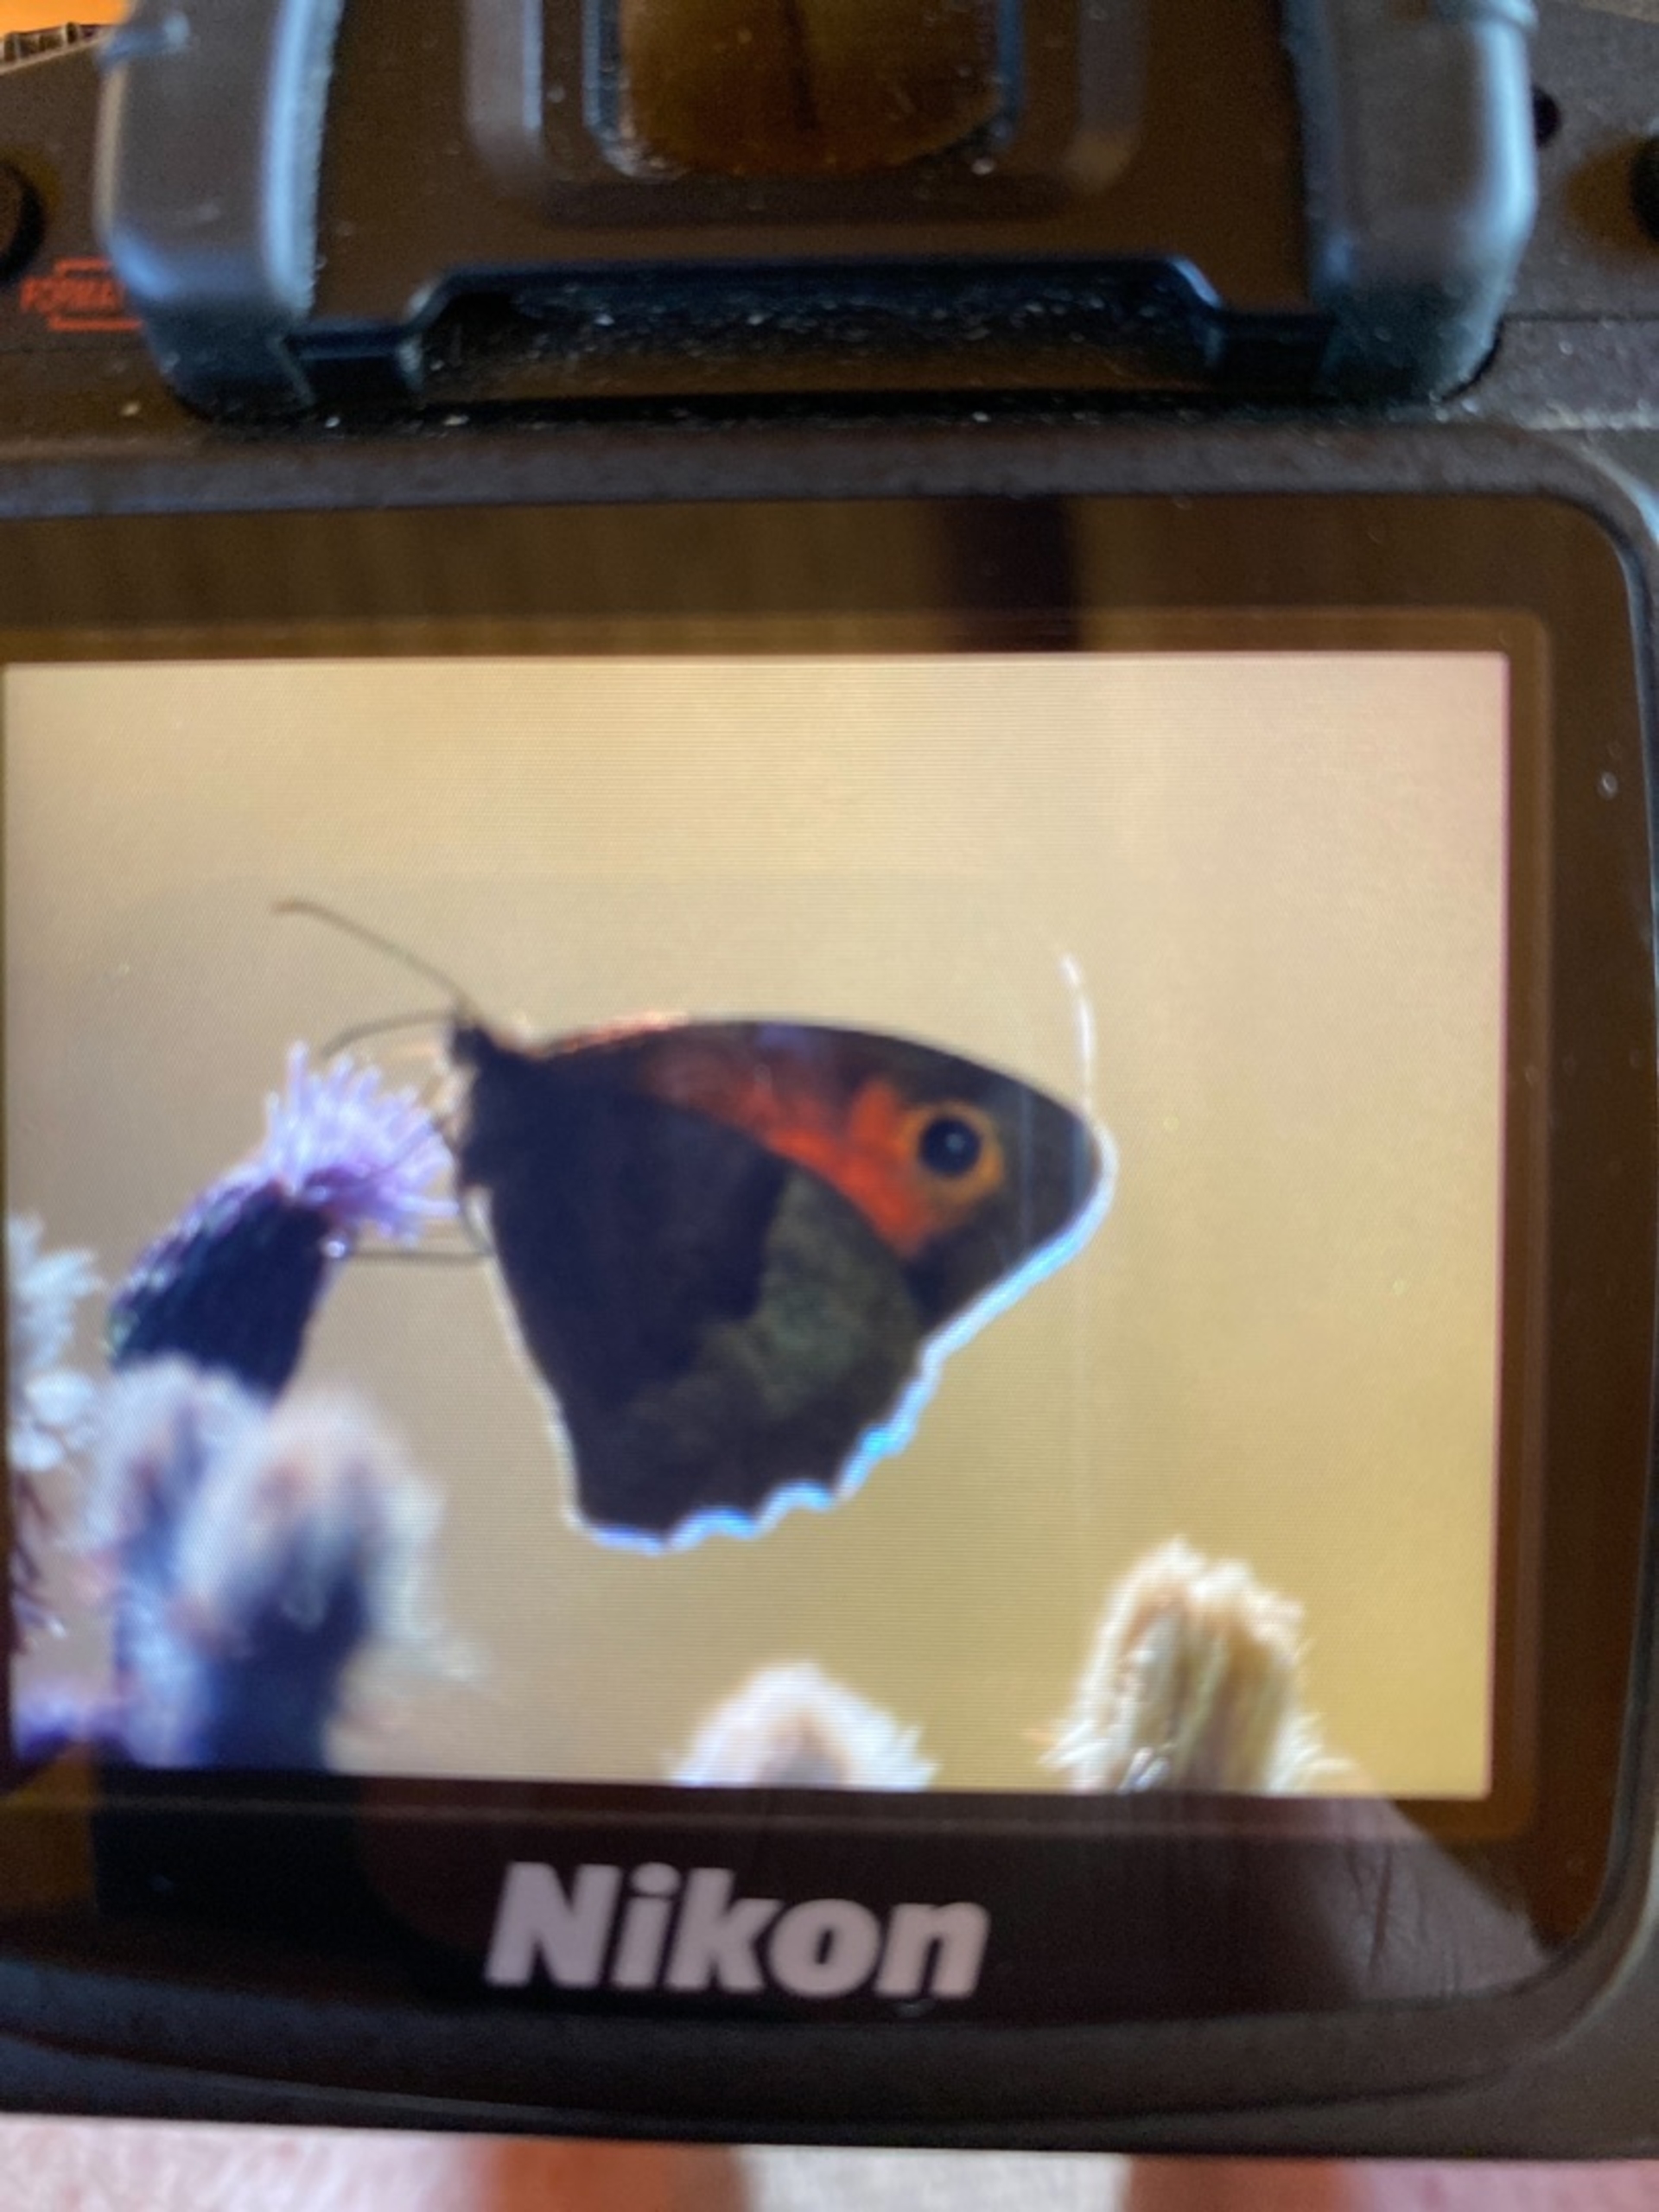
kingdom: Animalia
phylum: Arthropoda
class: Insecta
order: Lepidoptera
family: Nymphalidae
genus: Maniola
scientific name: Maniola jurtina
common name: Græsrandøje
